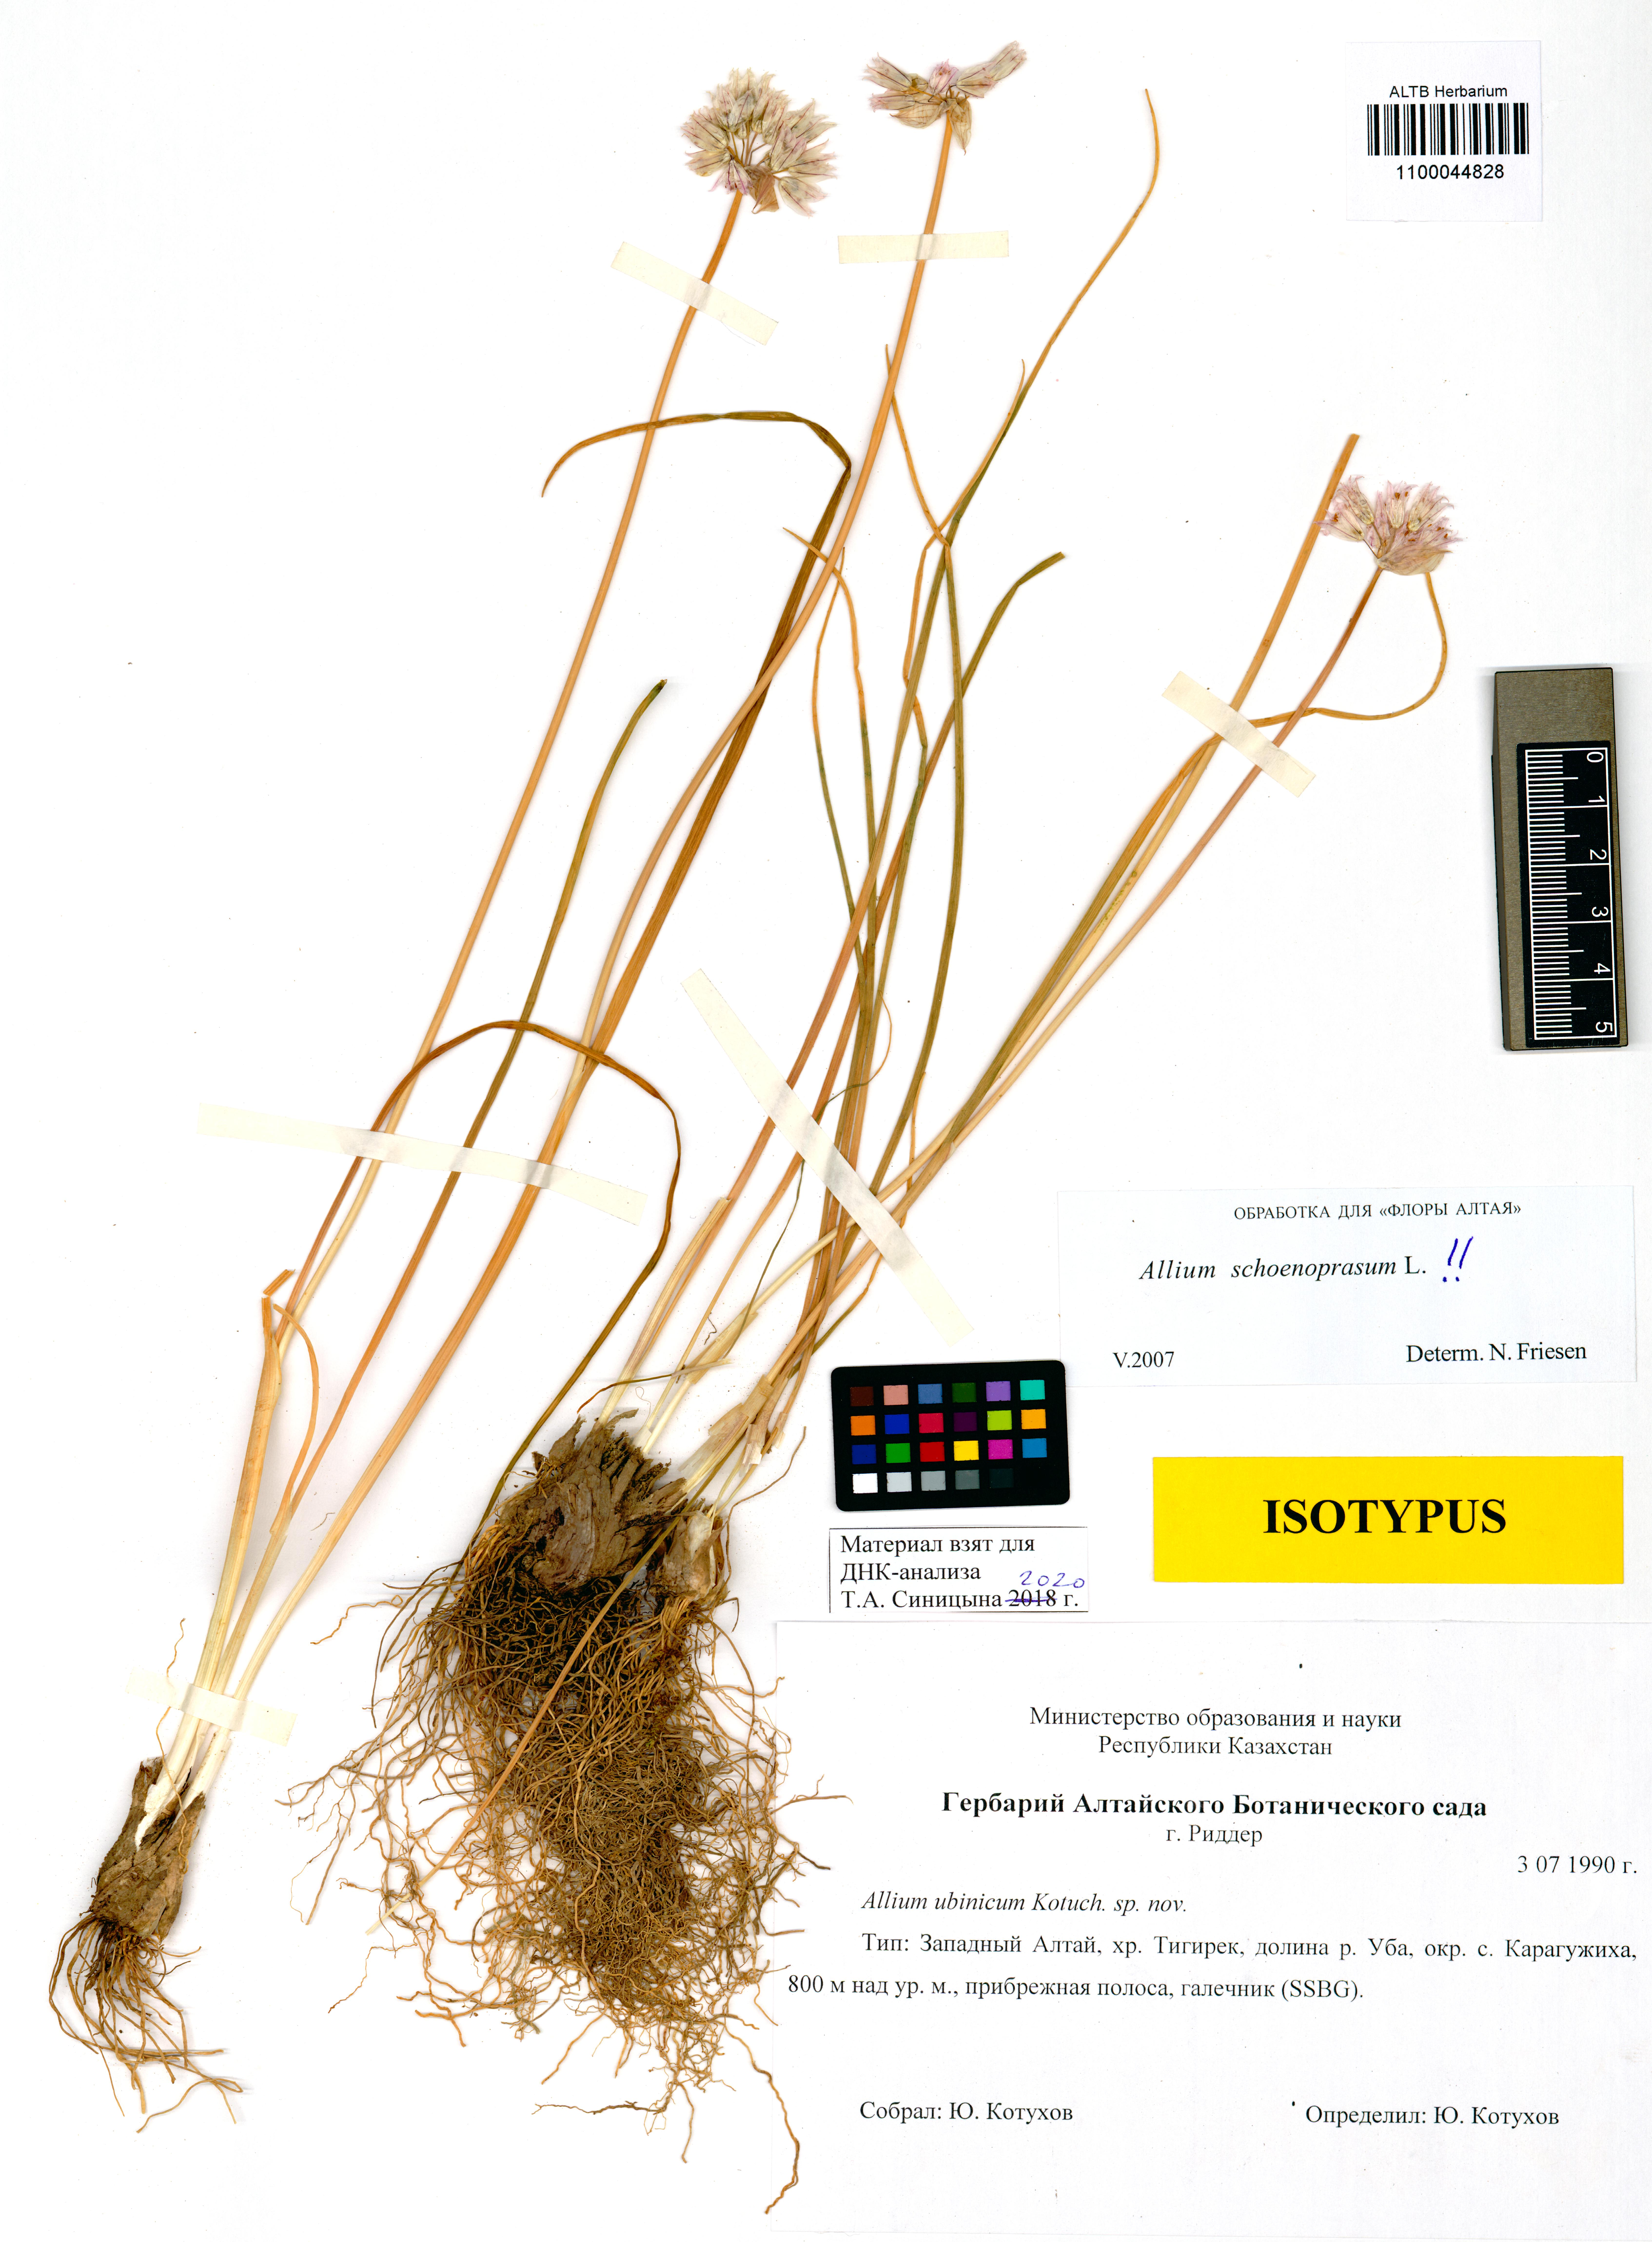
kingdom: Plantae
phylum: Tracheophyta
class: Liliopsida
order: Asparagales
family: Amaryllidaceae
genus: Allium
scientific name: Allium schoenoprasum
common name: Chives
